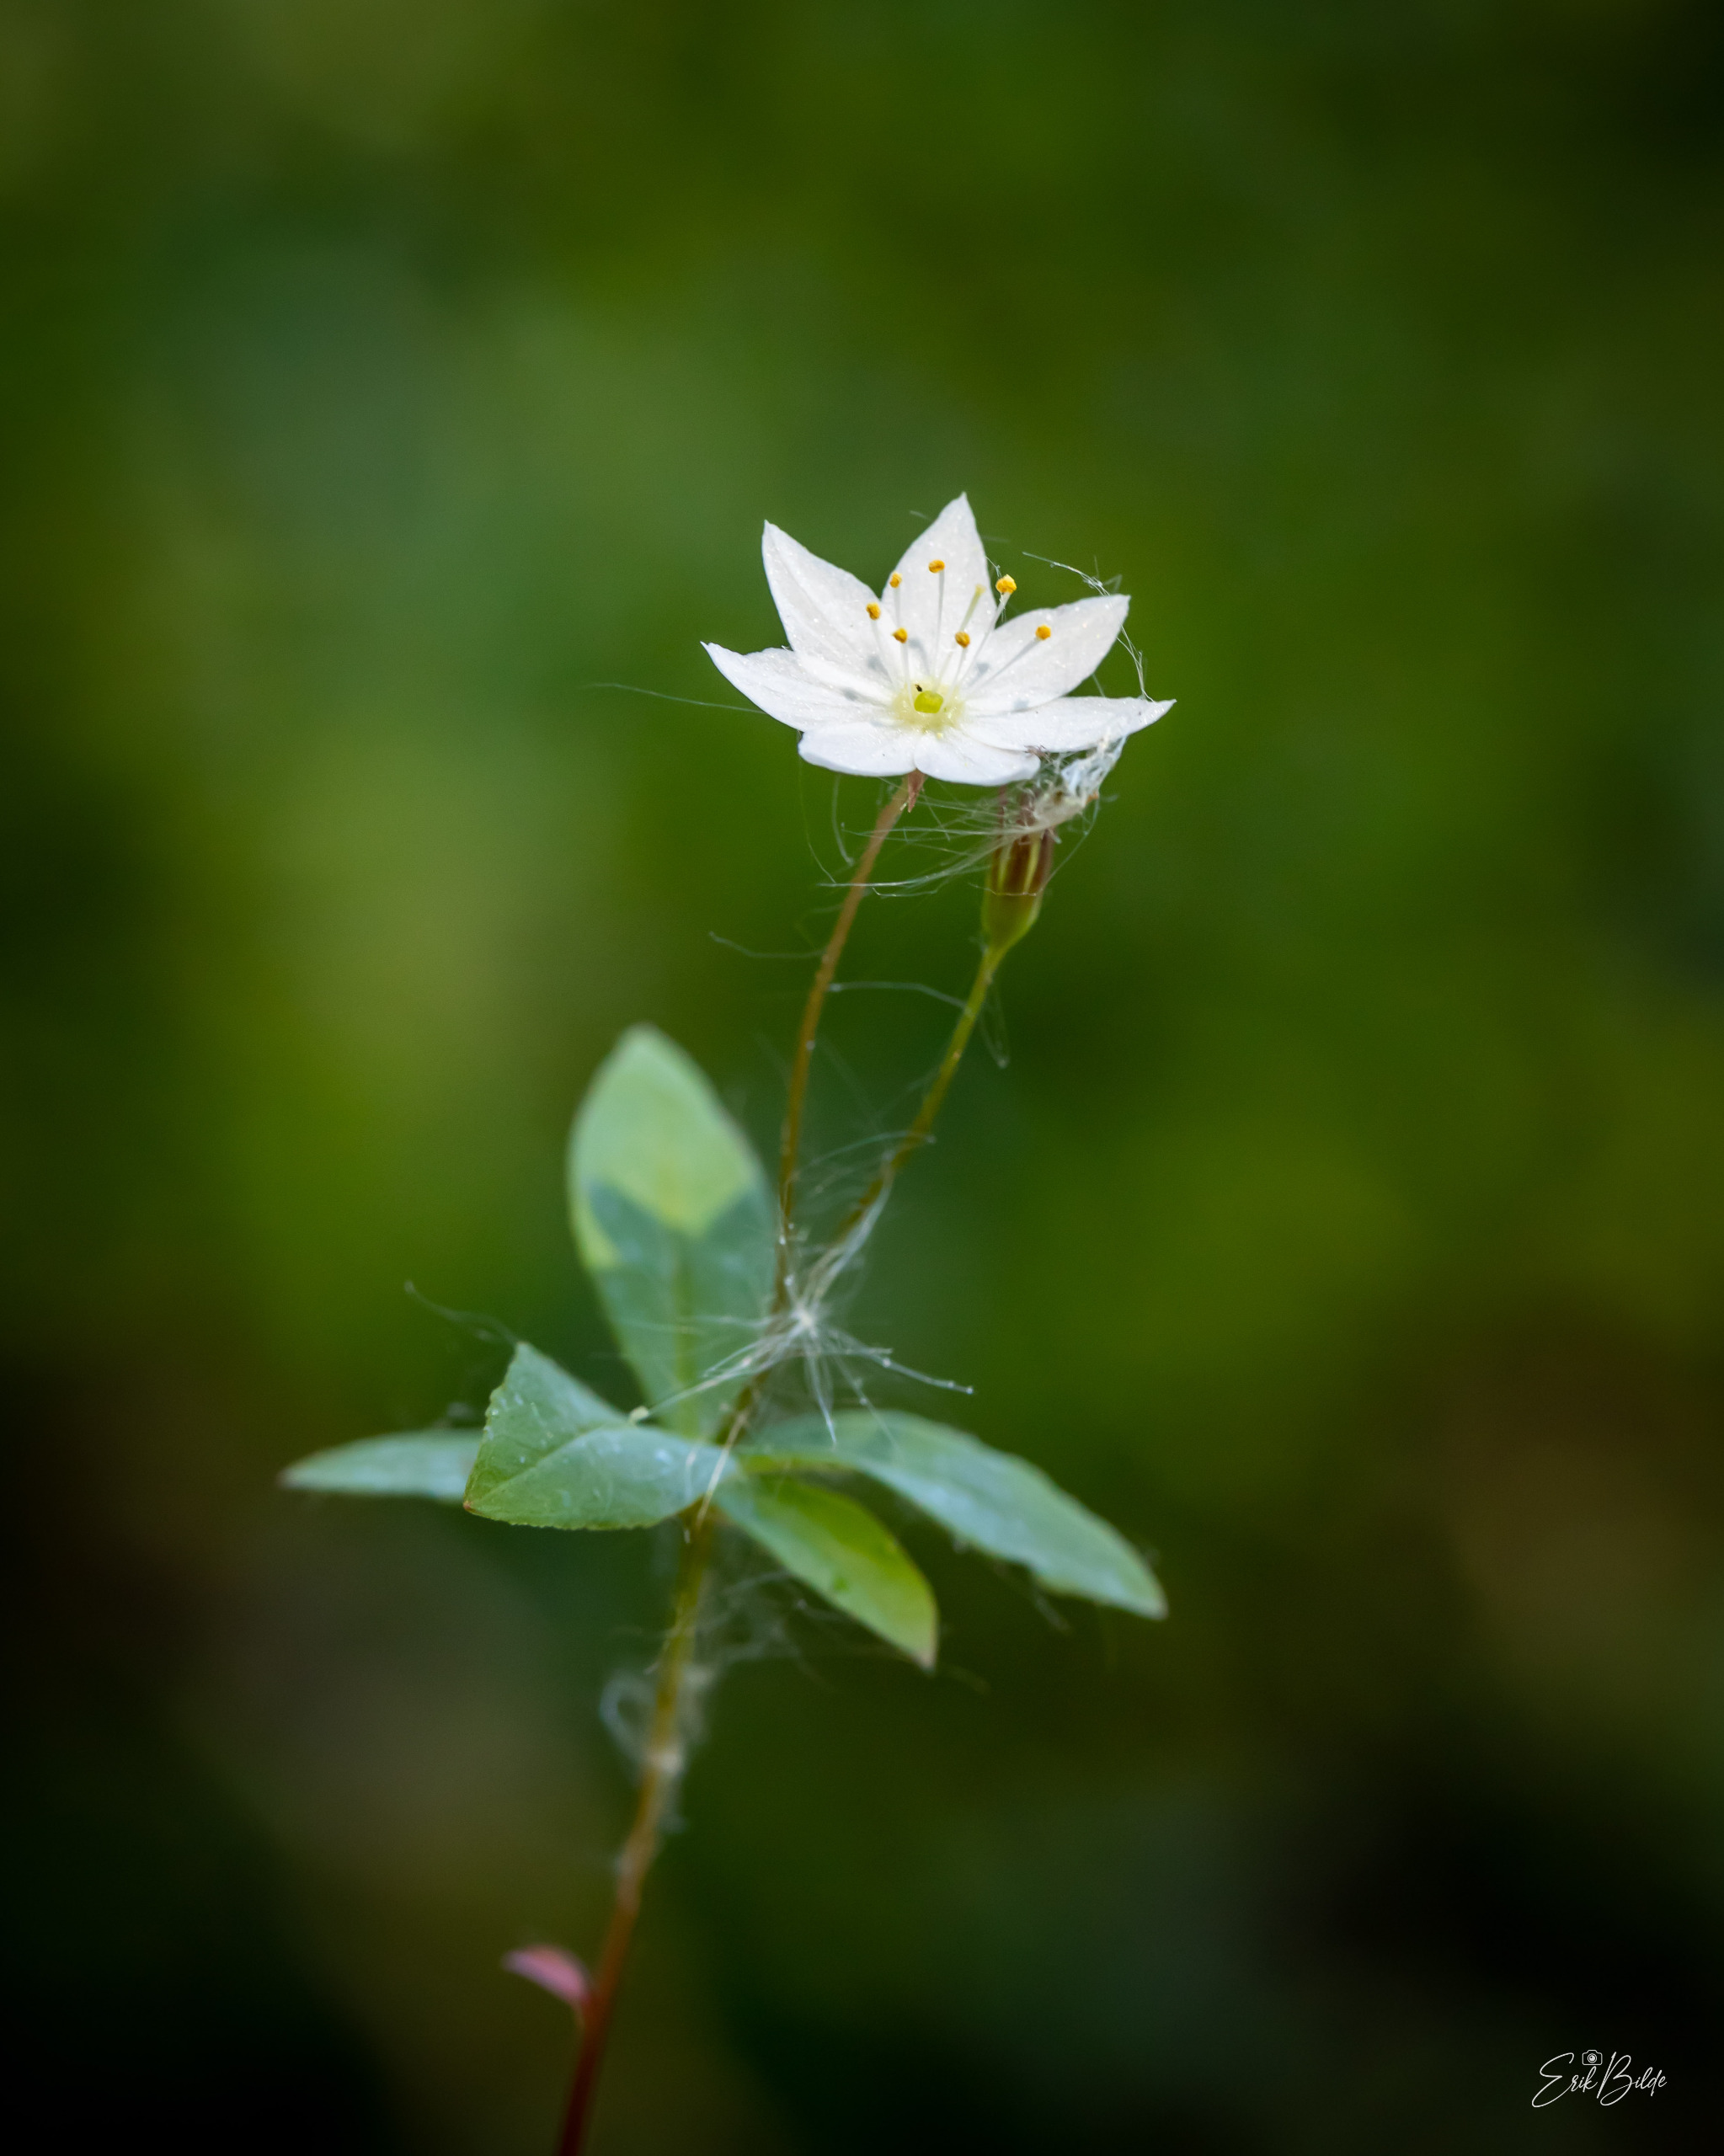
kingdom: Plantae
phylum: Tracheophyta
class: Magnoliopsida
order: Ericales
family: Primulaceae
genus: Lysimachia
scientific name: Lysimachia europaea
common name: Skovstjerne
